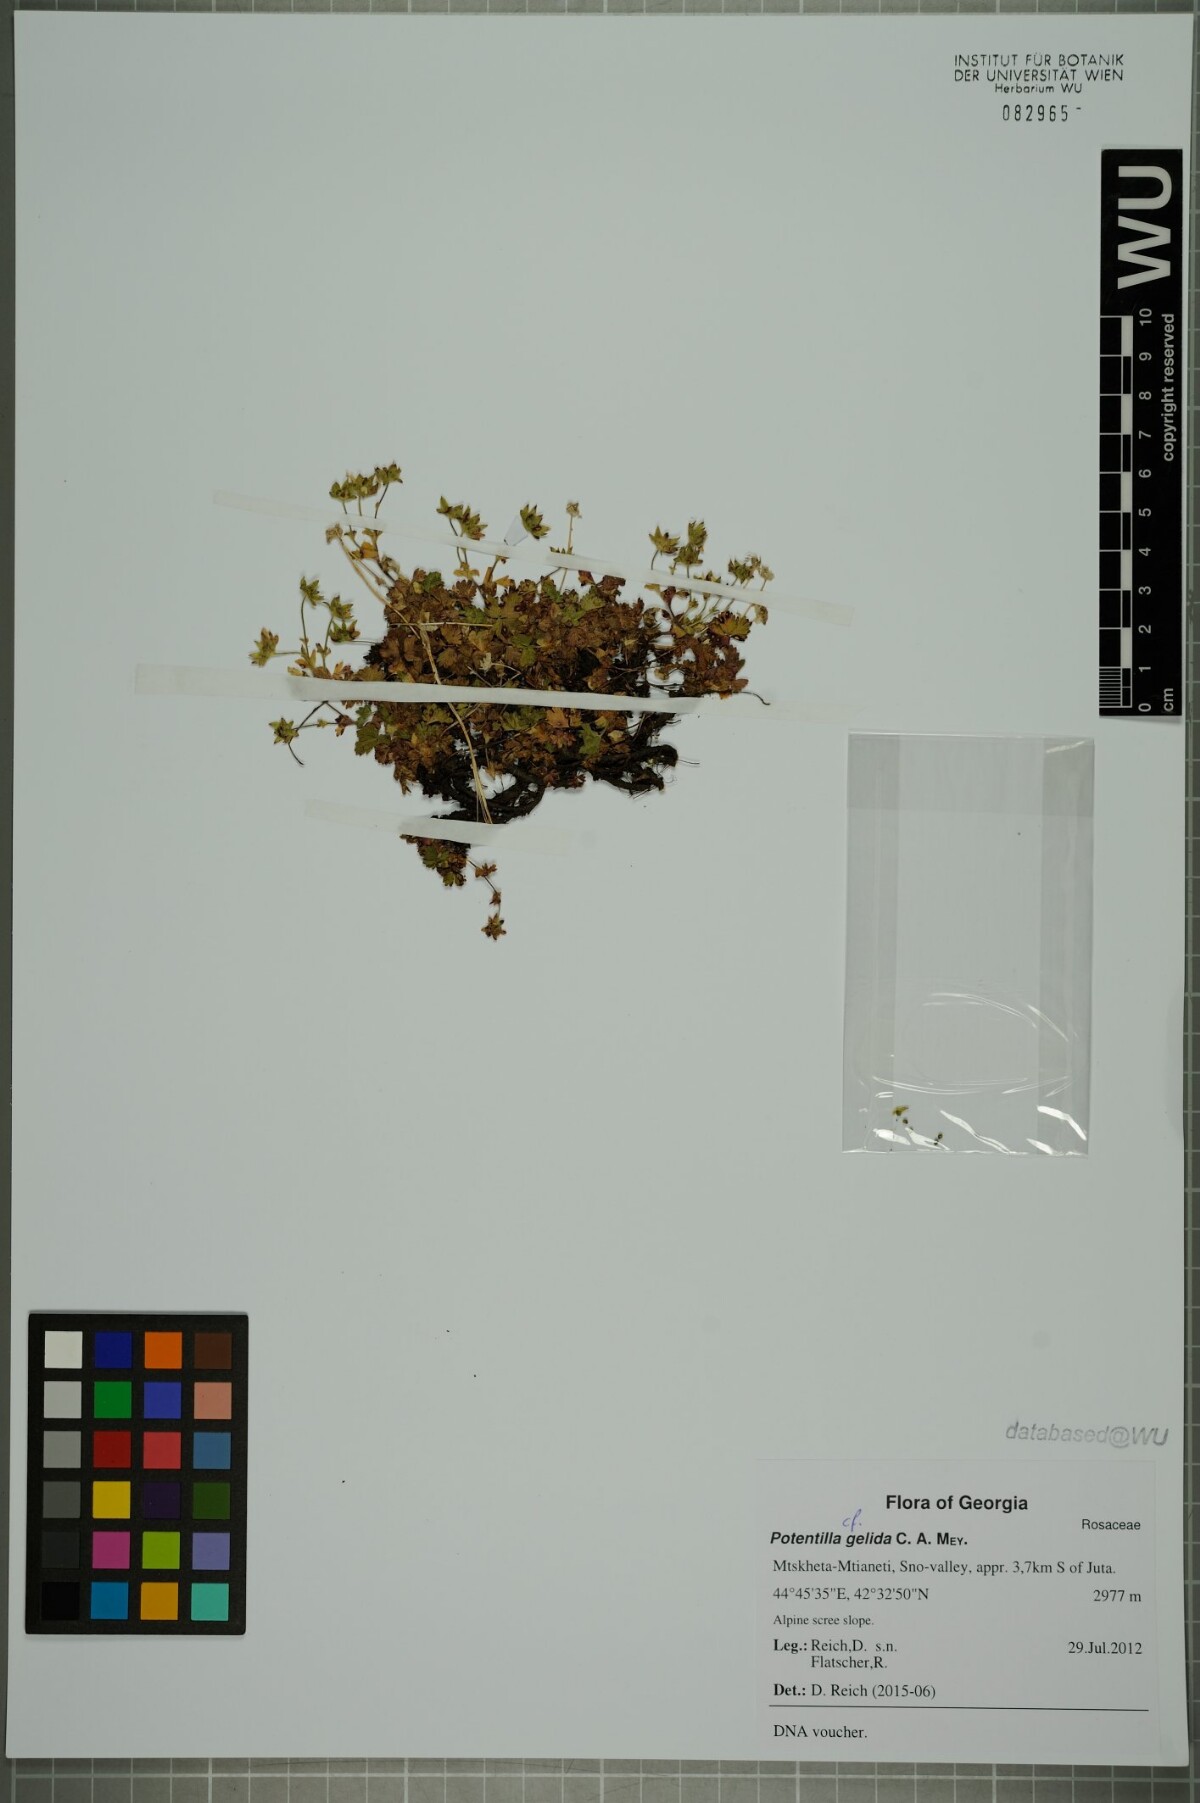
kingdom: Plantae
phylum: Tracheophyta
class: Magnoliopsida
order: Rosales
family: Rosaceae
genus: Potentilla
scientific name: Potentilla crantzii
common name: Alpine cinquefoil
